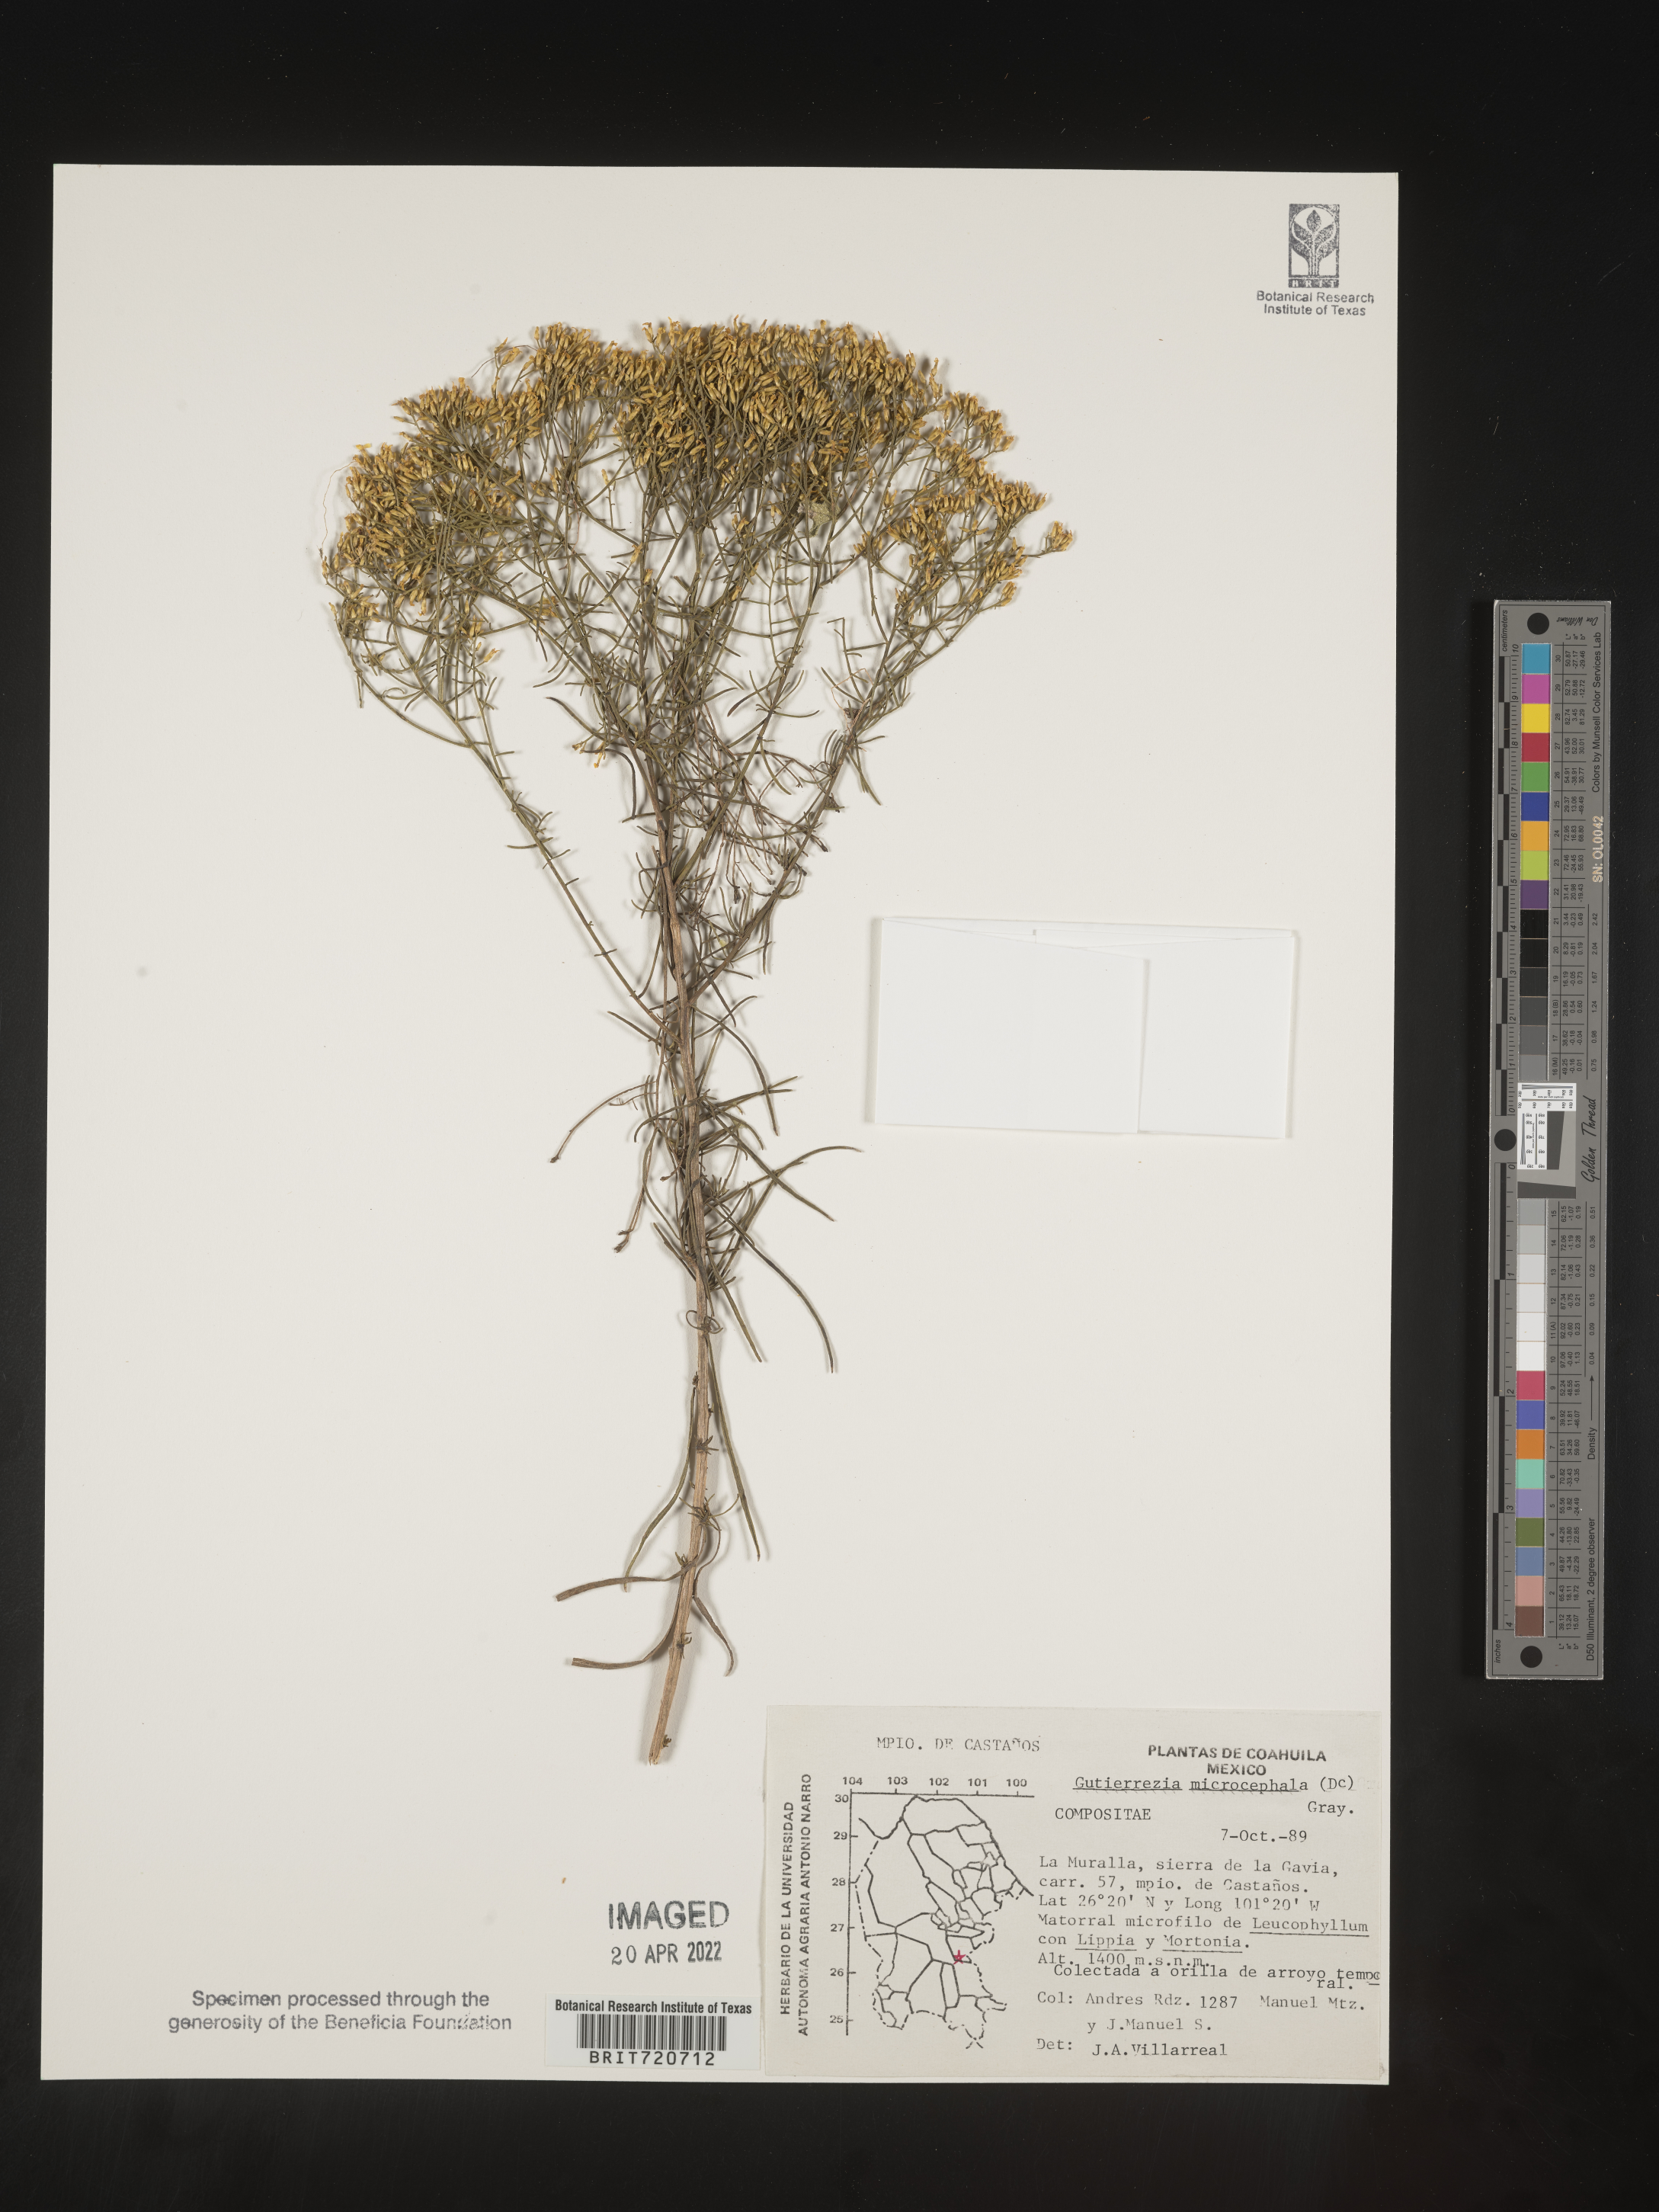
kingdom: Plantae
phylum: Tracheophyta
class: Magnoliopsida
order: Asterales
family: Asteraceae
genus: Gutierrezia
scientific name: Gutierrezia microcephala
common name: Thread snakeweed
